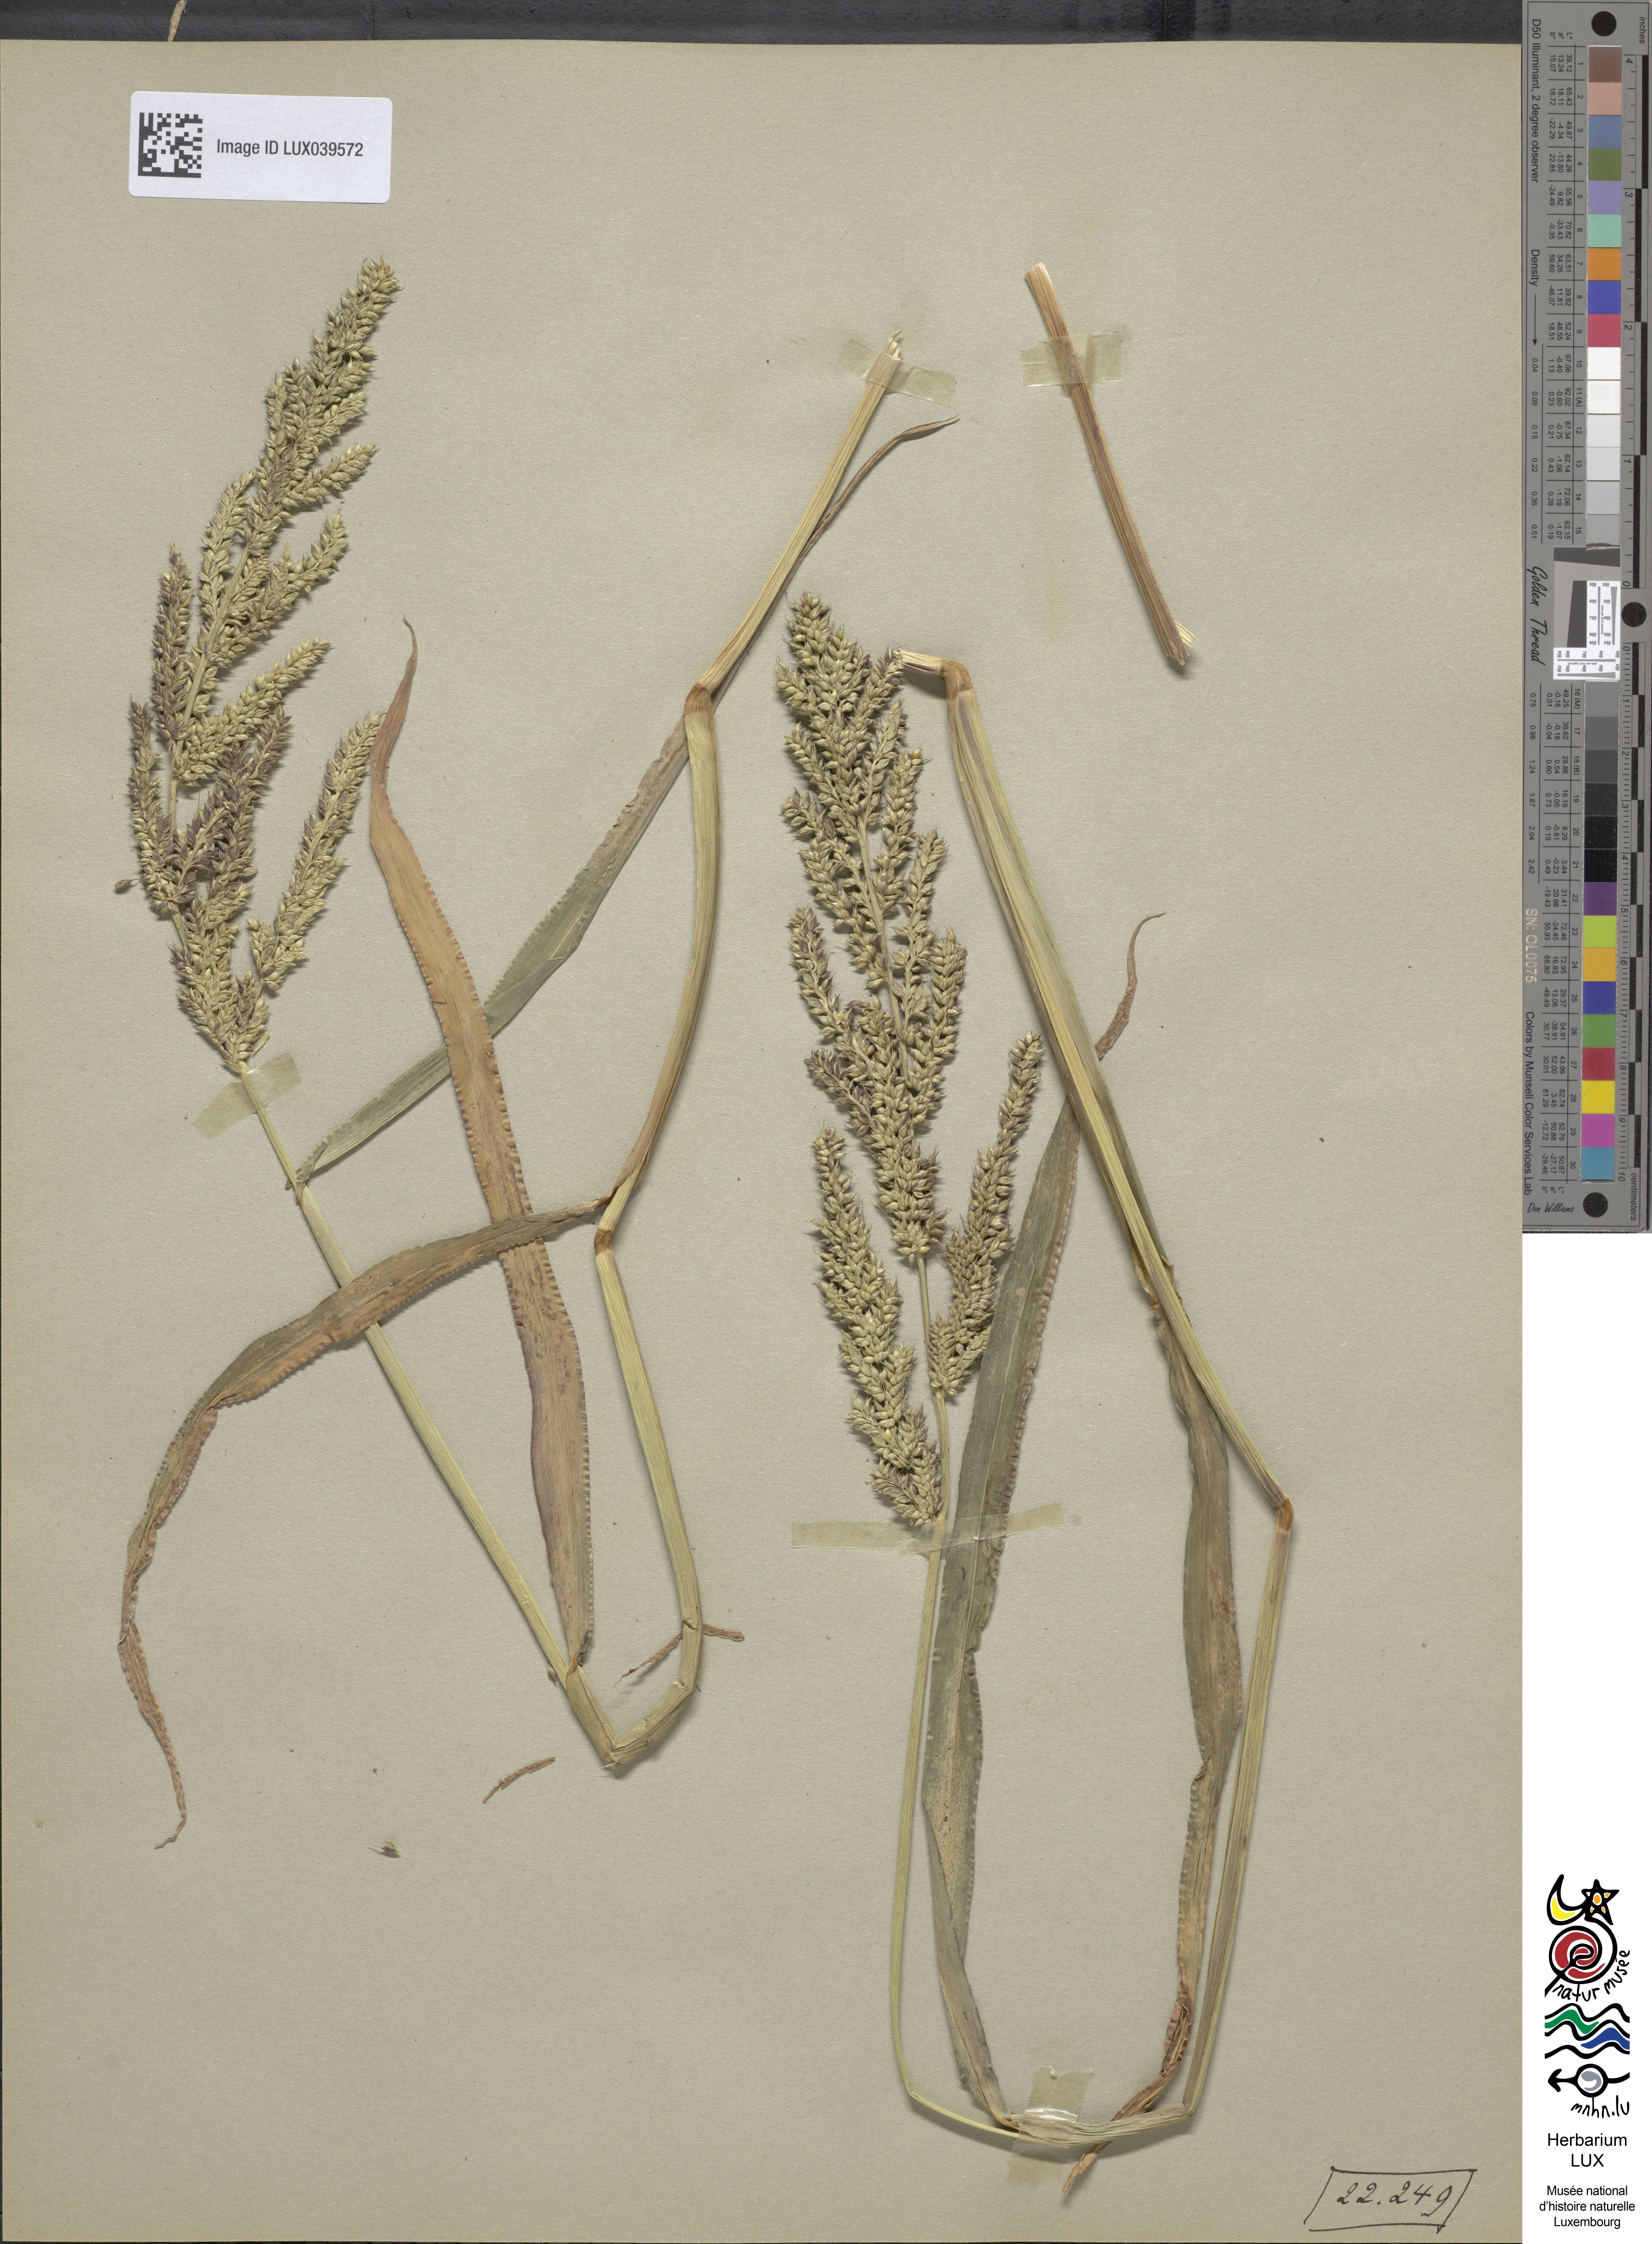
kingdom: Plantae
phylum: Tracheophyta
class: Liliopsida
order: Poales
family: Poaceae
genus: Echinochloa
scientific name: Echinochloa crus-galli
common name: Cockspur
